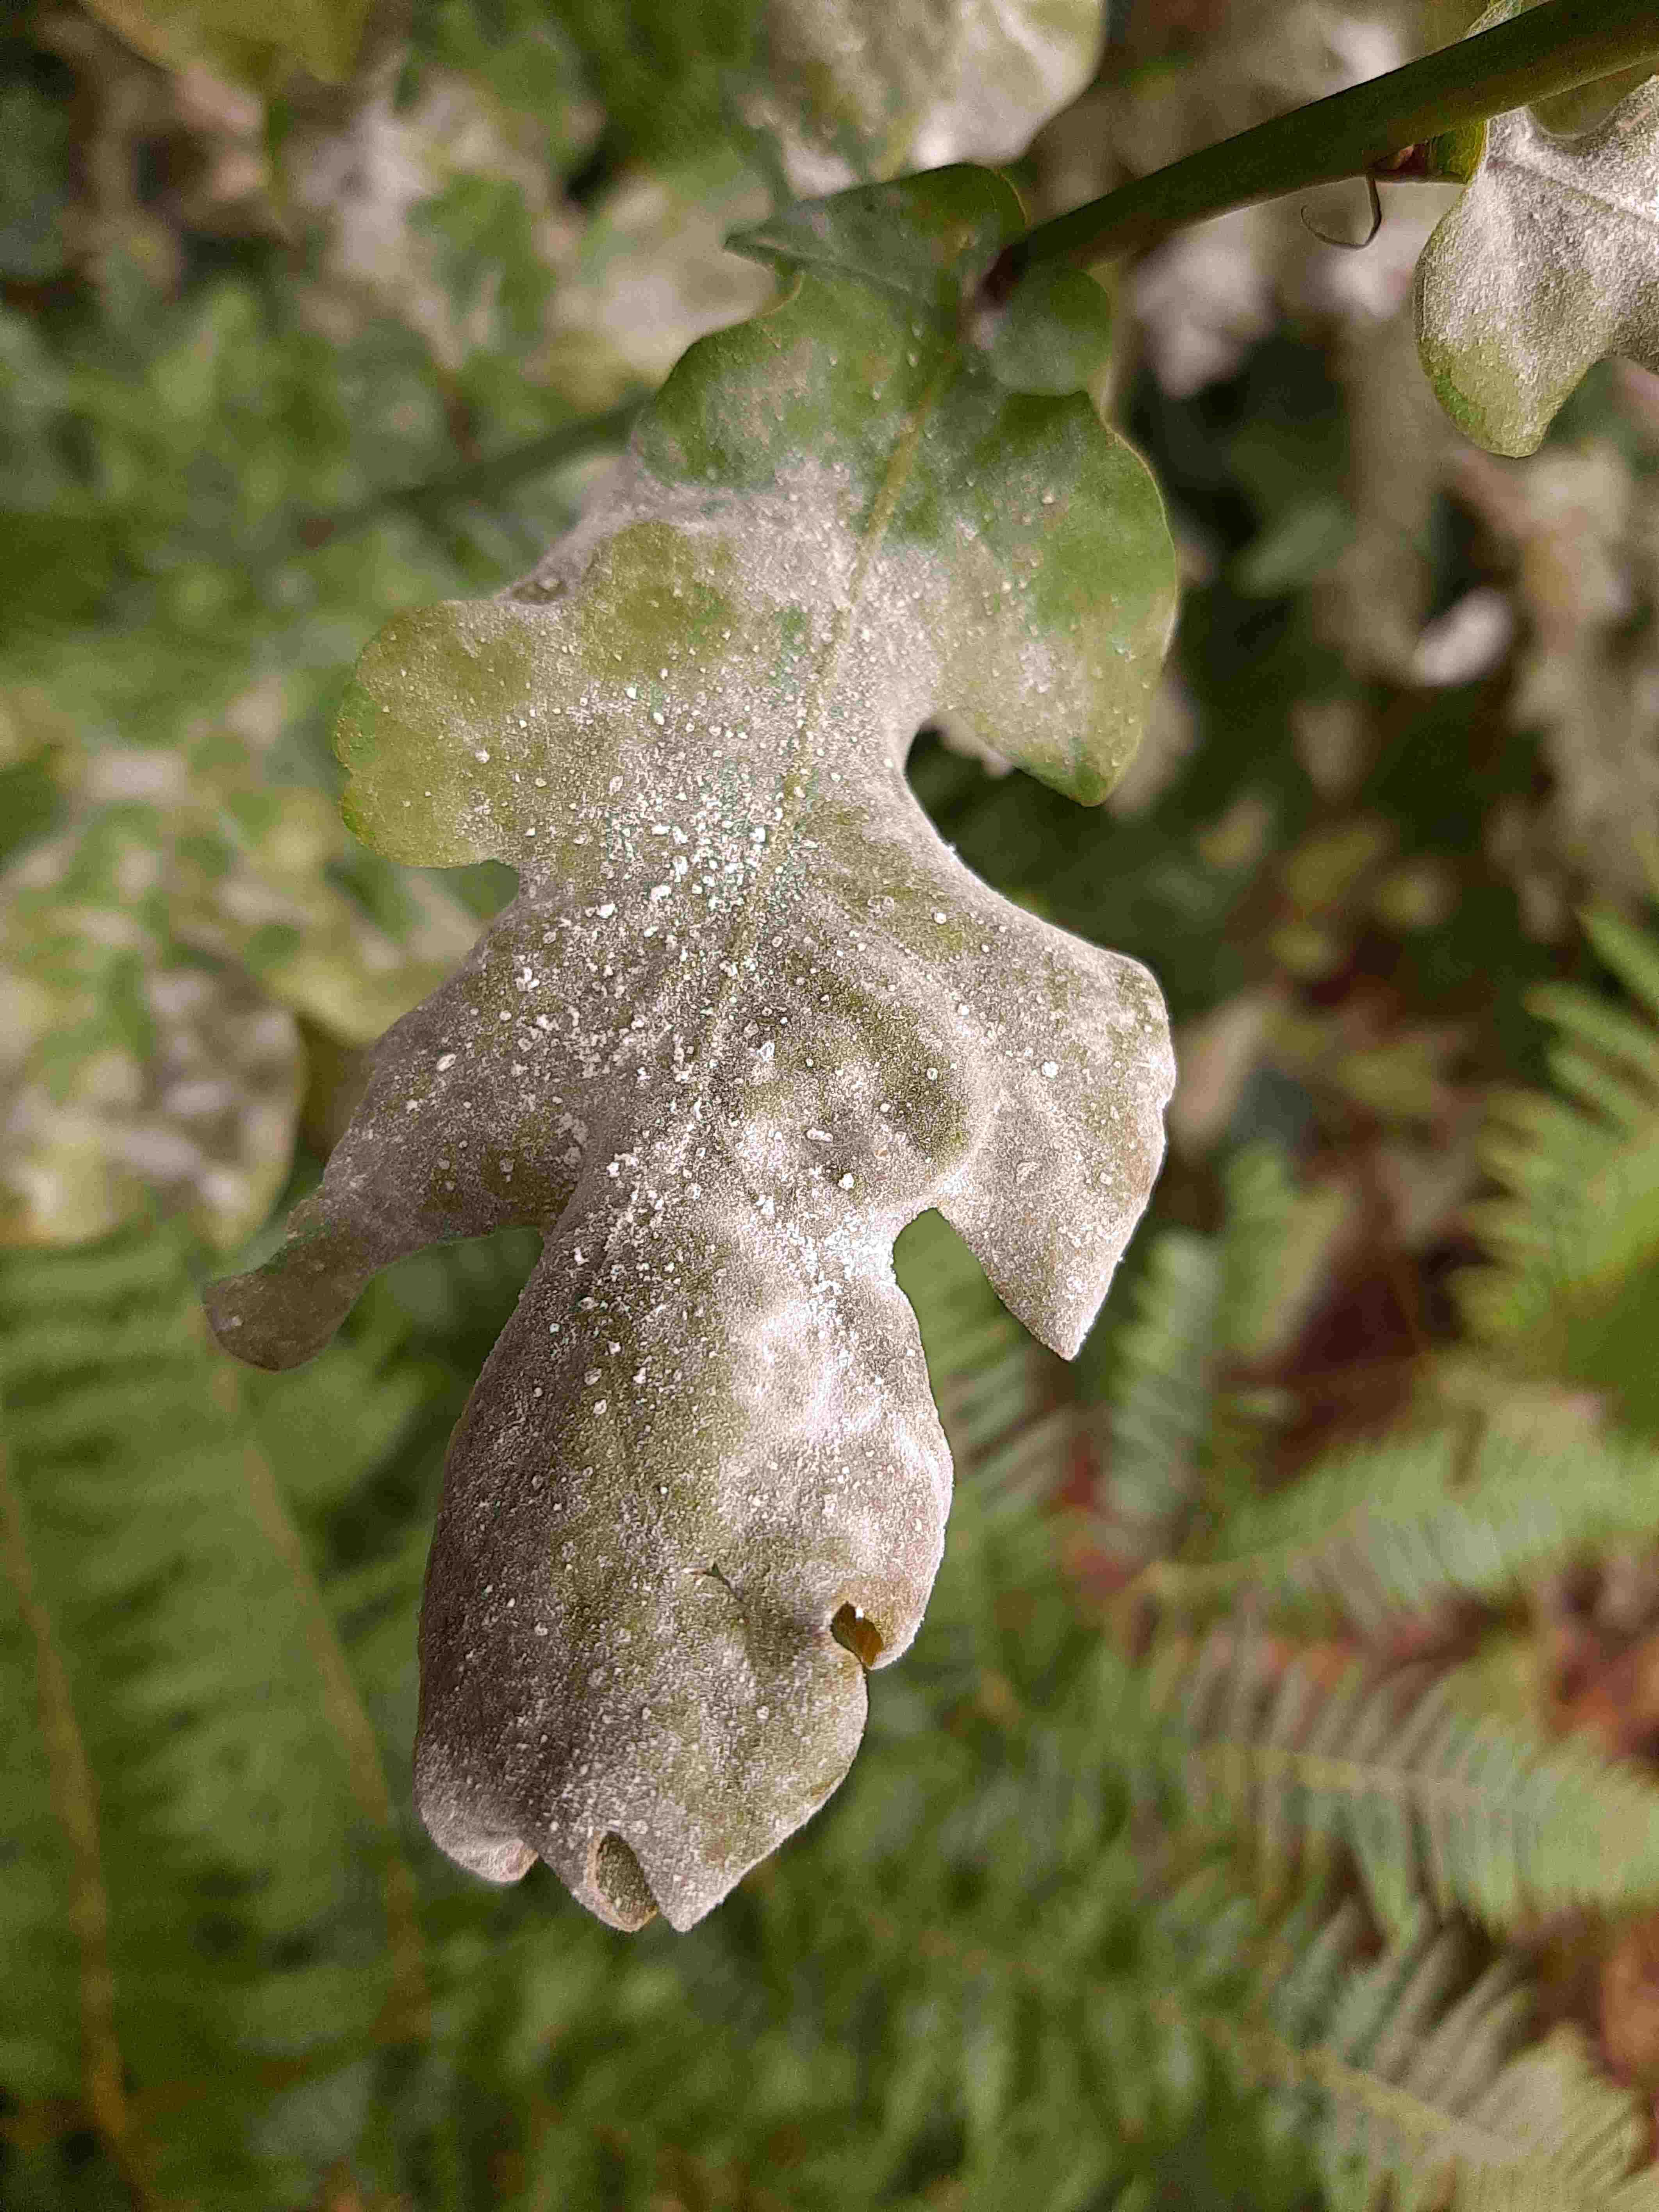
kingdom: Fungi
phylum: Ascomycota
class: Leotiomycetes
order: Helotiales
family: Erysiphaceae
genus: Erysiphe
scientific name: Erysiphe alphitoides
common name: ege-meldug
